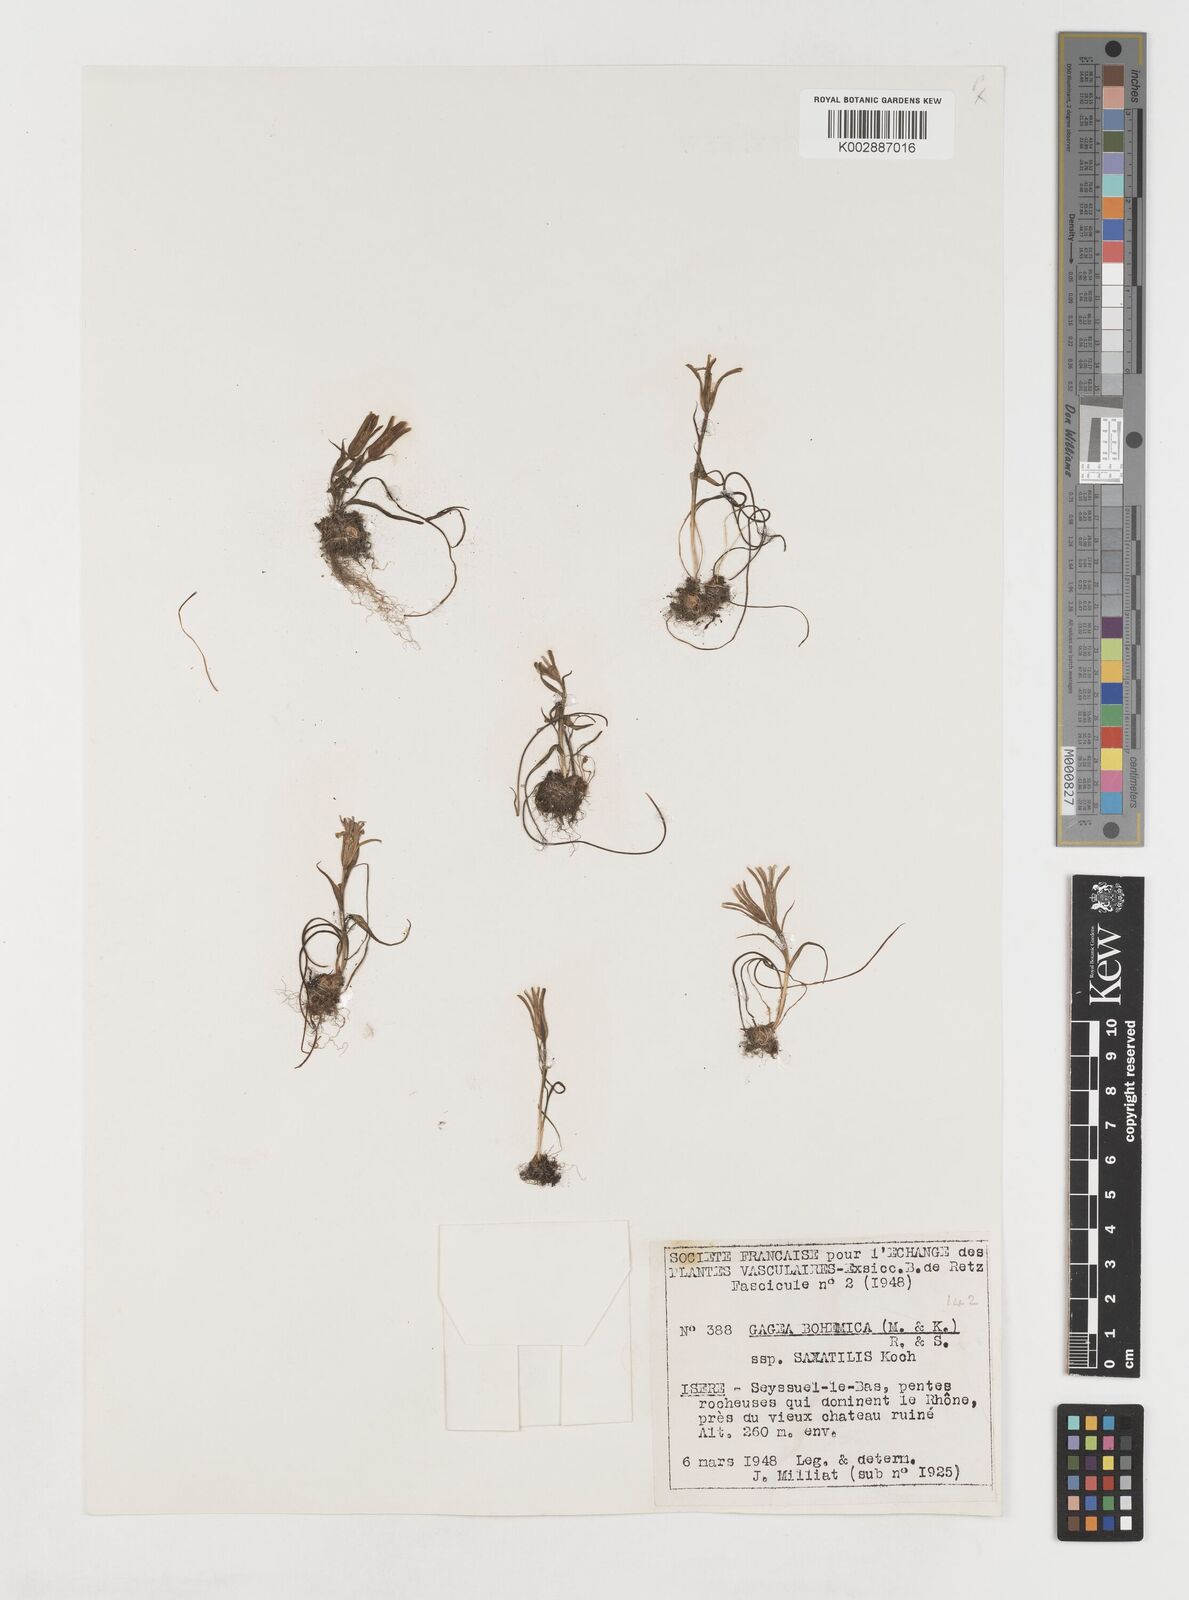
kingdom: Plantae
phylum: Tracheophyta
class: Liliopsida
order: Liliales
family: Liliaceae
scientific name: Liliaceae
